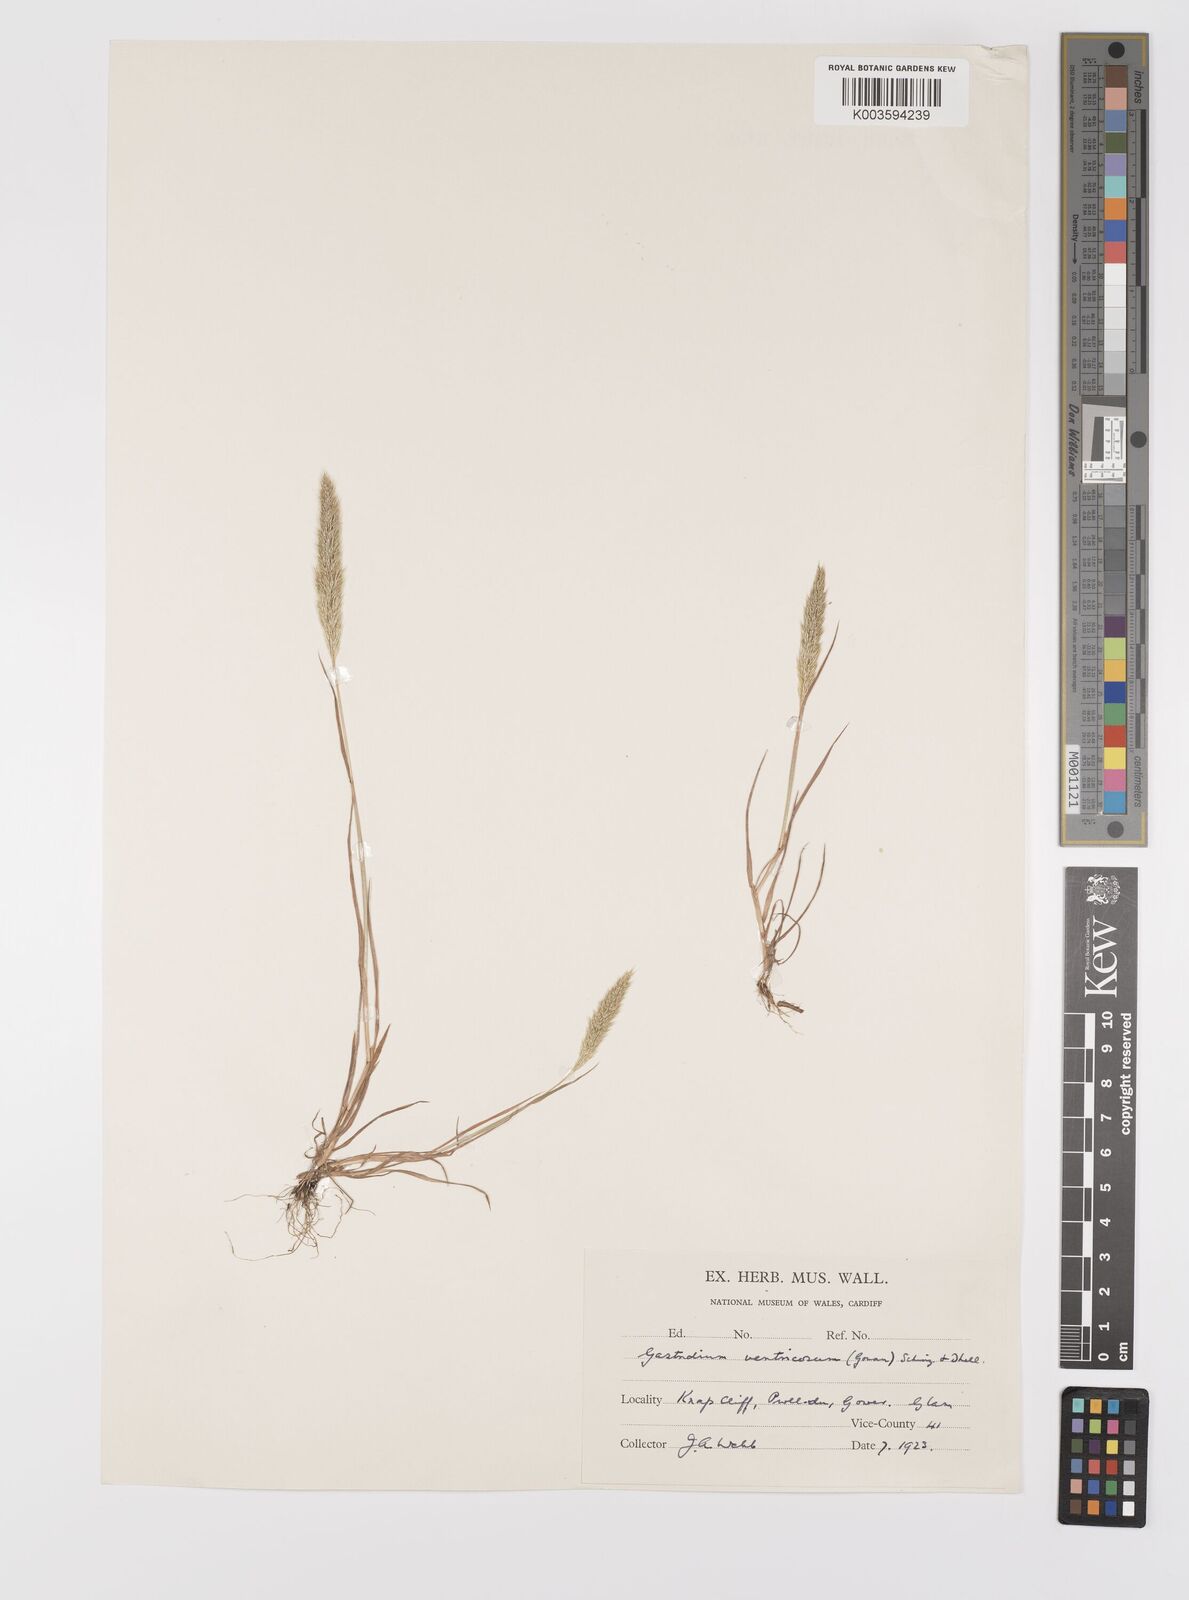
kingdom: Plantae
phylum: Tracheophyta
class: Liliopsida
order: Poales
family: Poaceae
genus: Gastridium
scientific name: Gastridium ventricosum
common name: Nit-grass
